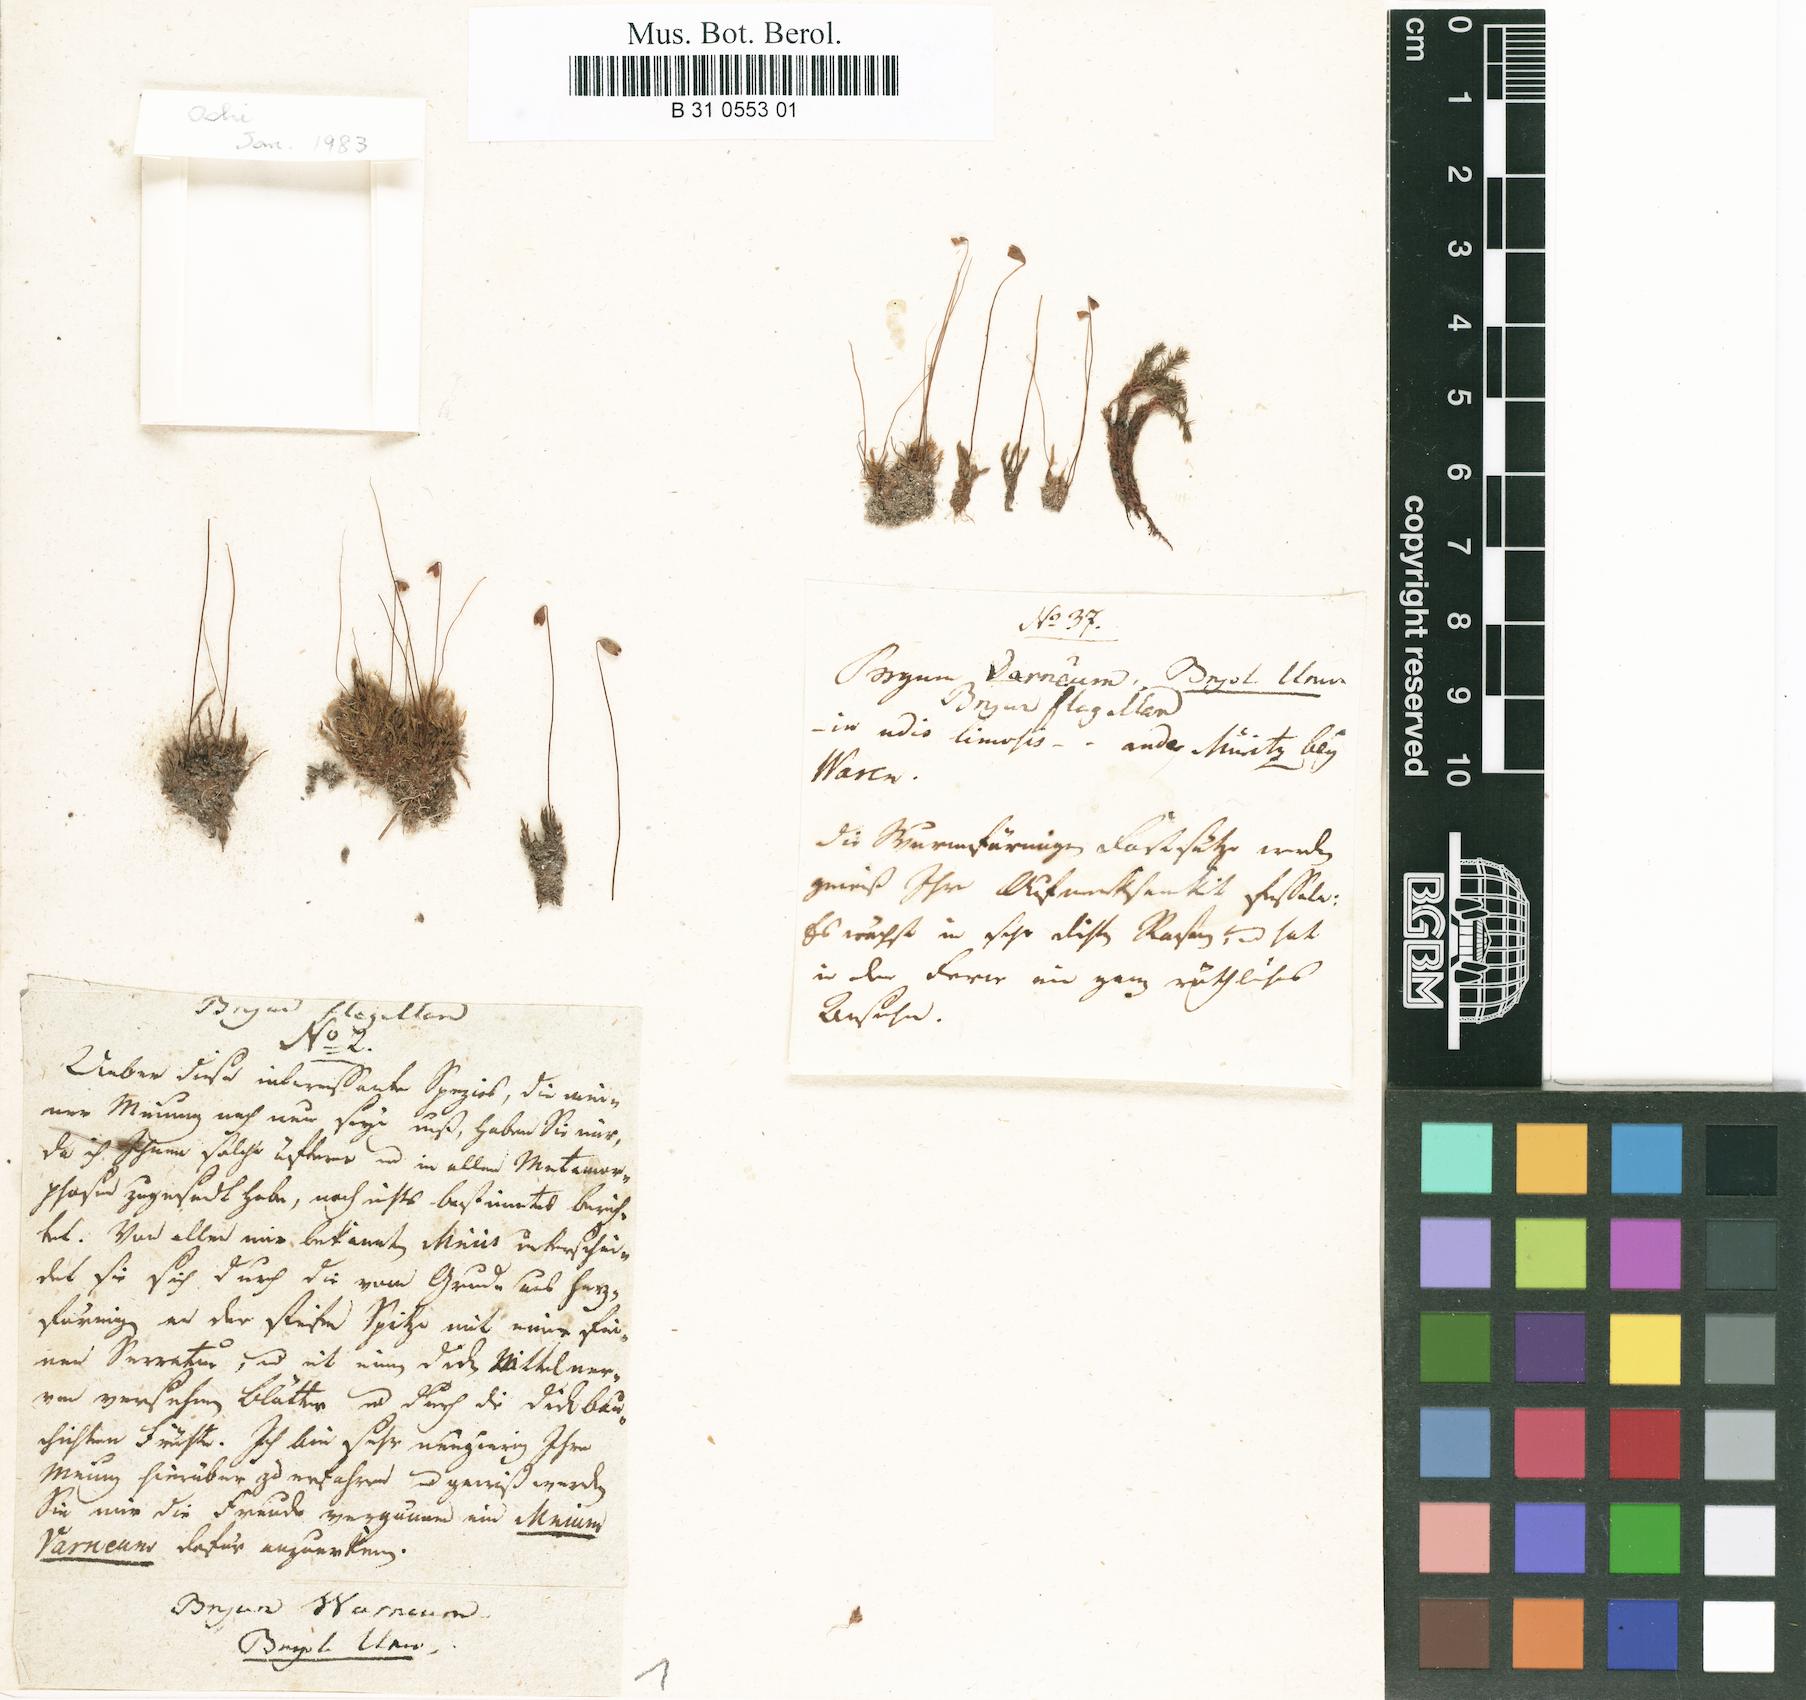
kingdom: Plantae
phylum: Bryophyta
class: Bryopsida
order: Bryales
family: Bryaceae
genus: Ptychostomum
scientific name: Ptychostomum warneum
